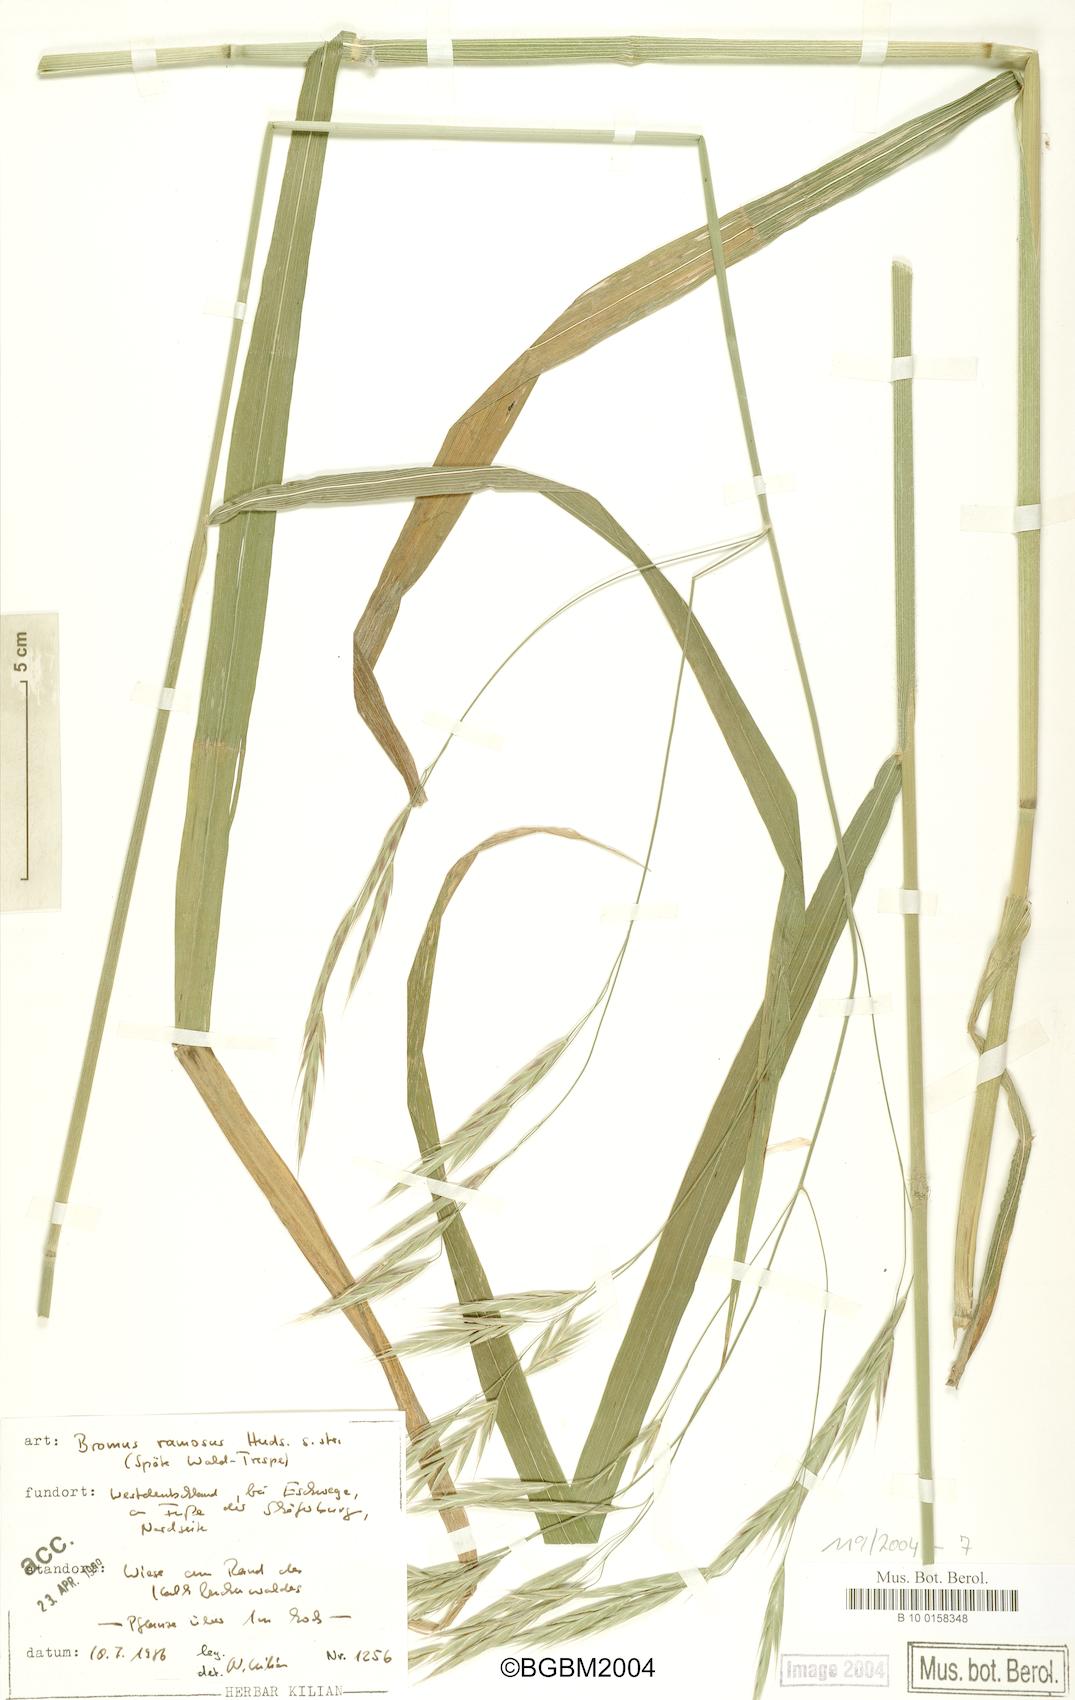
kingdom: Plantae
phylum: Tracheophyta
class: Liliopsida
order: Poales
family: Poaceae
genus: Bromus
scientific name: Bromus ramosus
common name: Hairy brome
